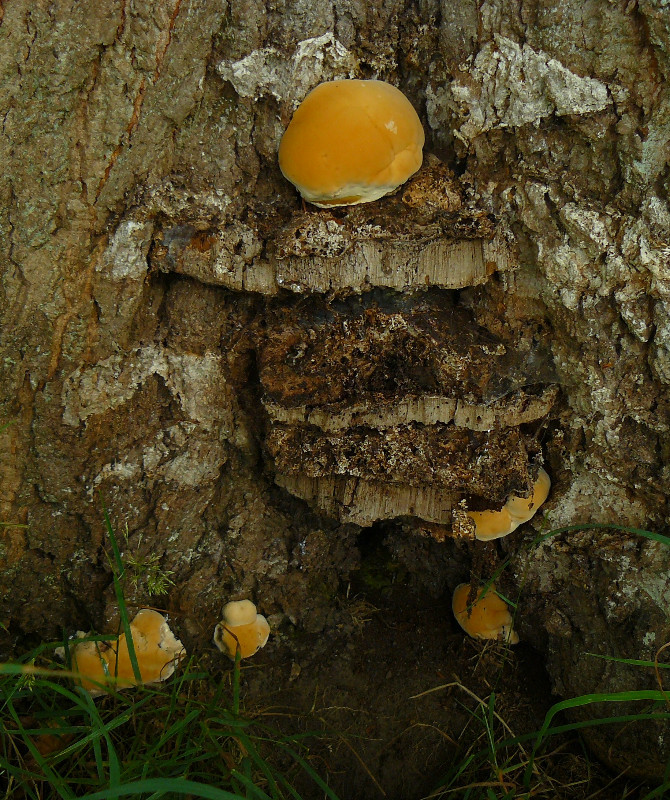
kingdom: Fungi
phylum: Basidiomycota
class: Agaricomycetes
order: Polyporales
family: Polyporaceae
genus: Ganoderma
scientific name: Ganoderma resinaceum
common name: gyldenbrun lakporesvamp
